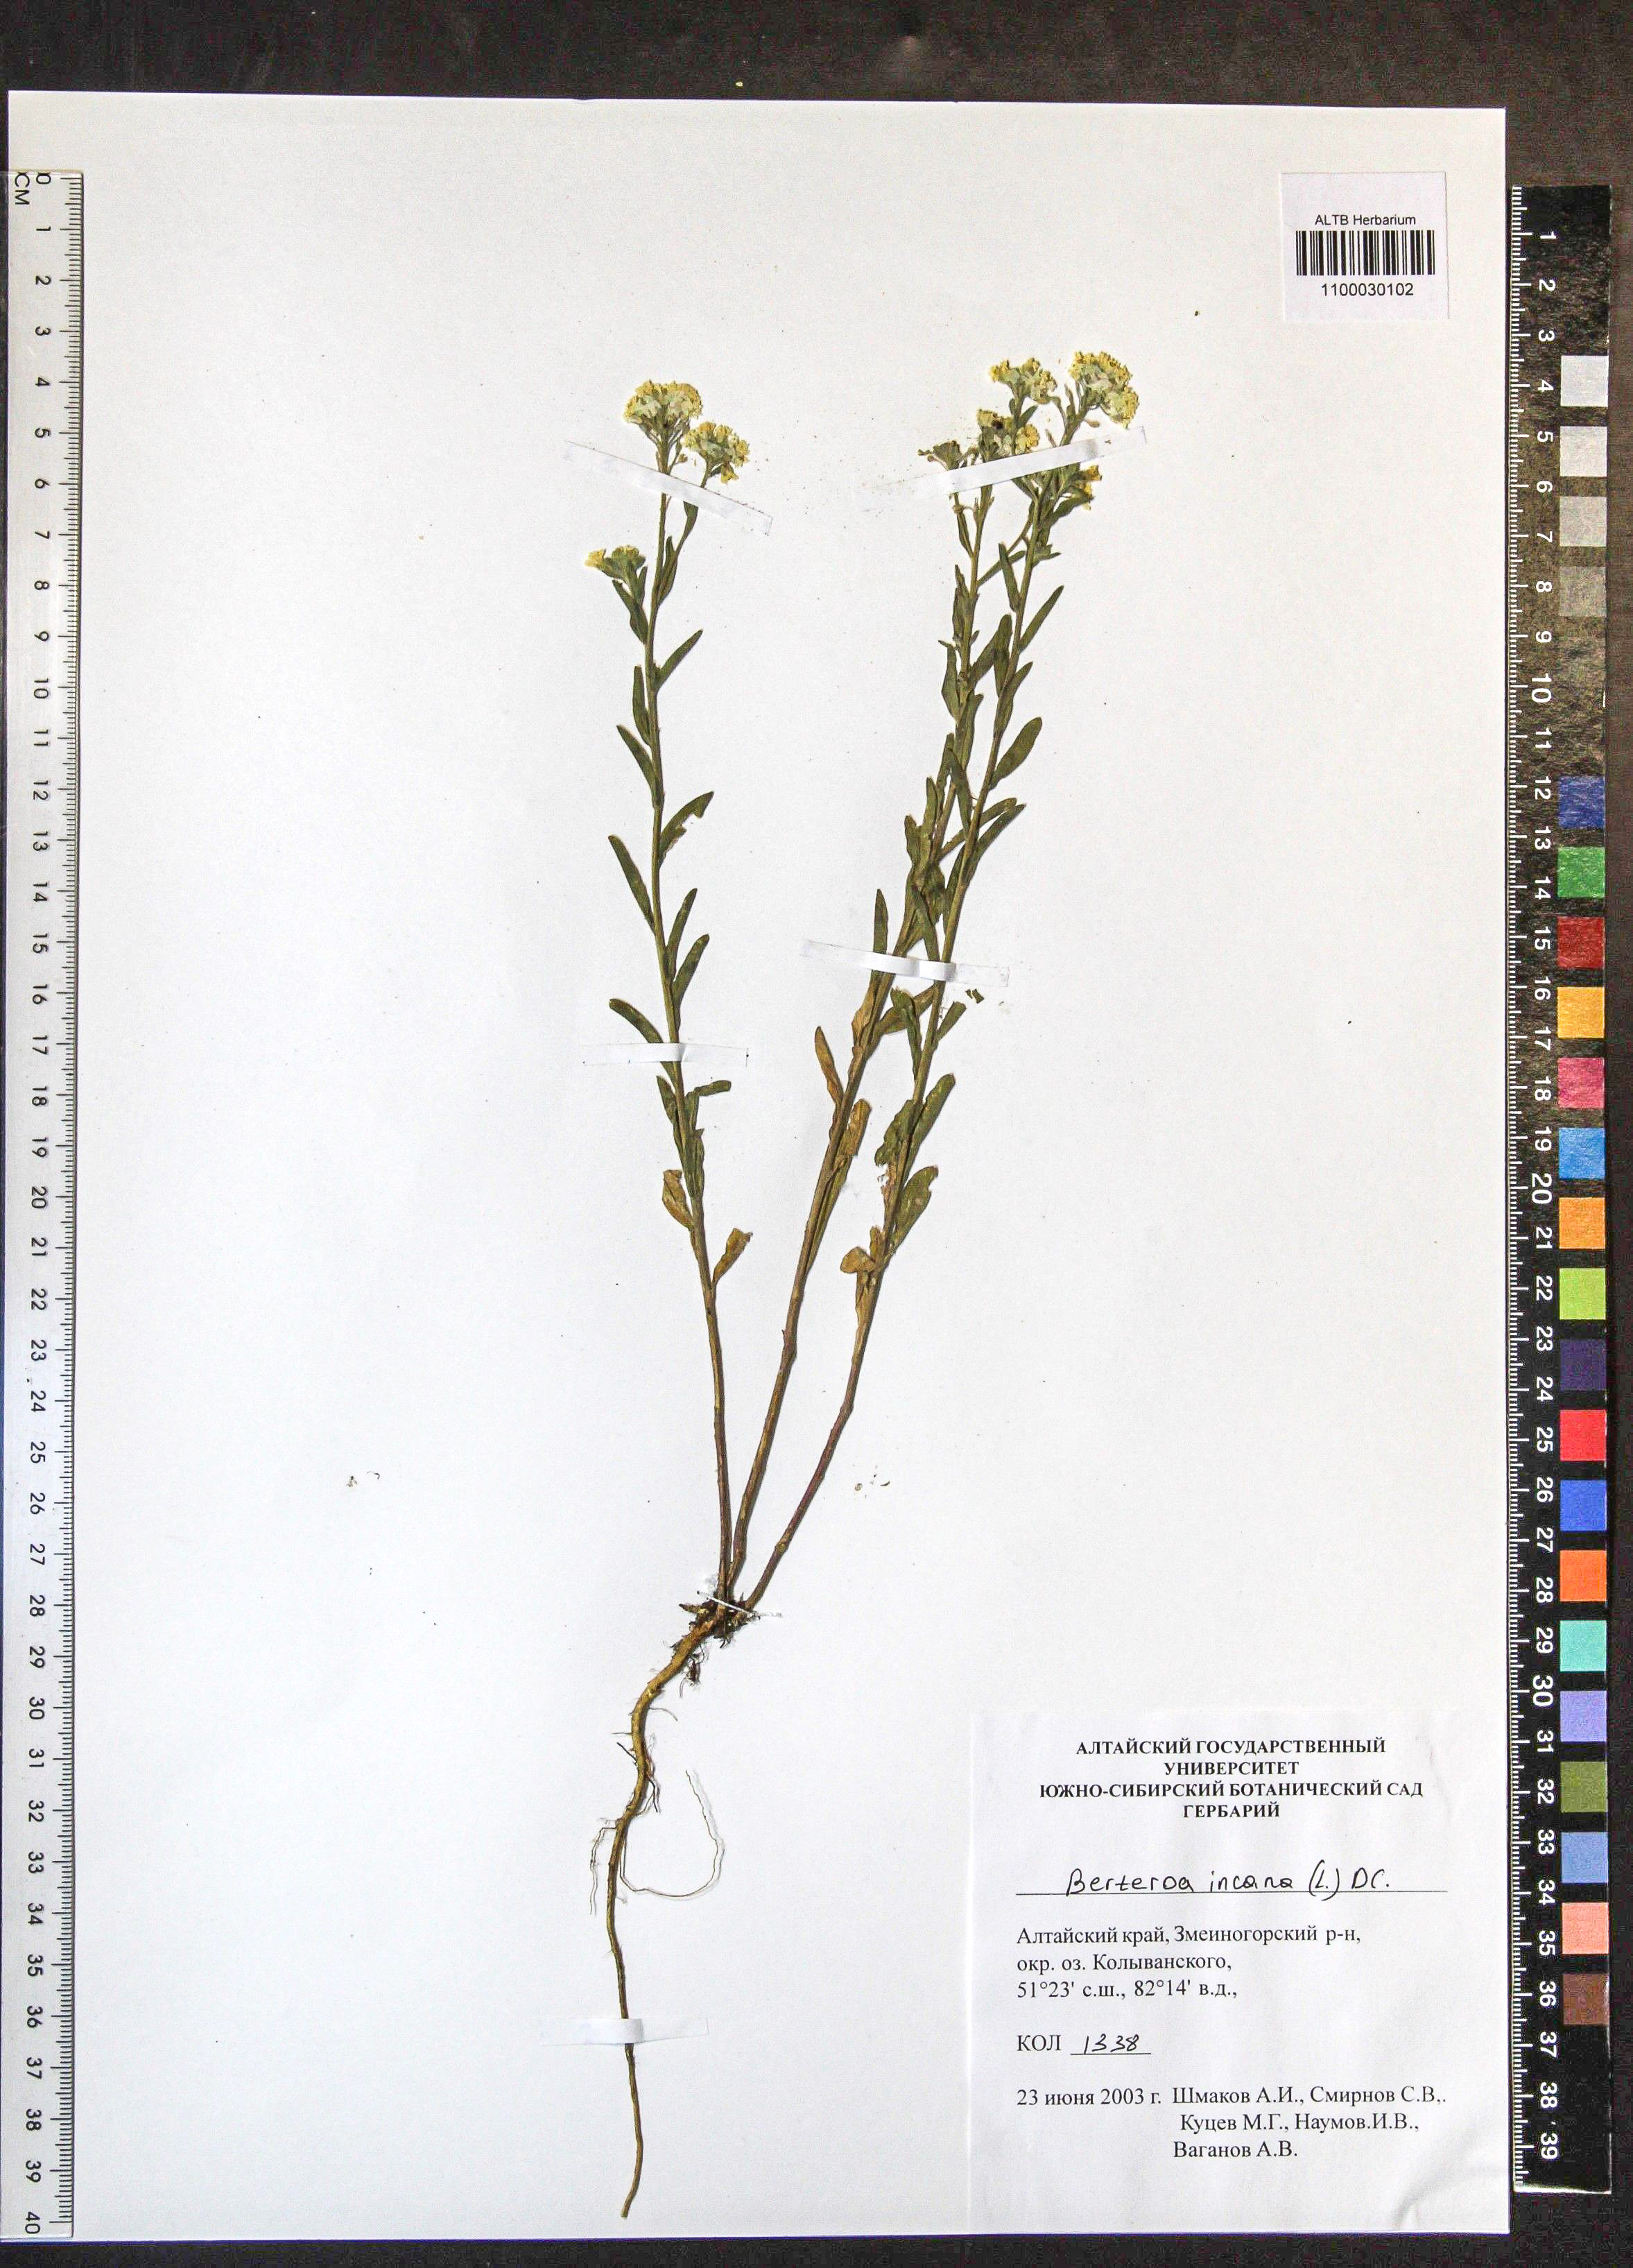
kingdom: Plantae
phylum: Tracheophyta
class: Magnoliopsida
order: Brassicales
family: Brassicaceae
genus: Berteroa
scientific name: Berteroa incana
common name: Hoary alison
